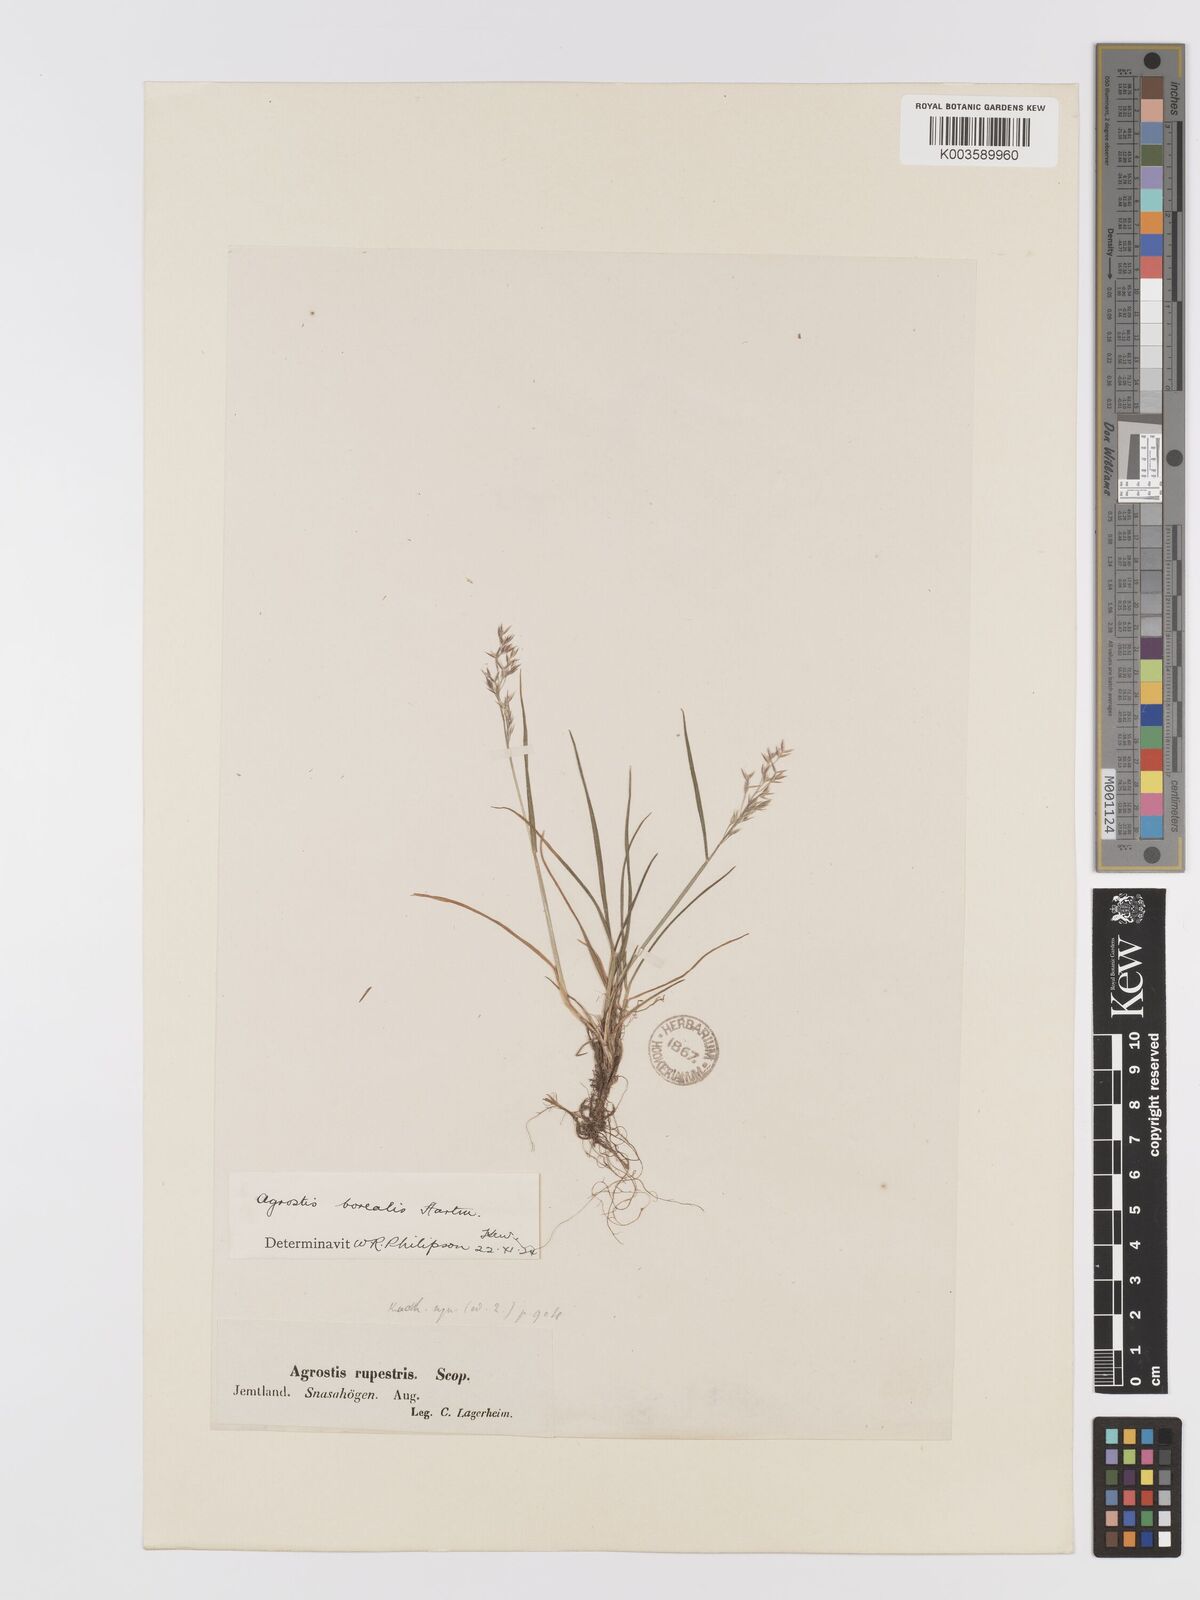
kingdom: Plantae
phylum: Tracheophyta
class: Liliopsida
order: Poales
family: Poaceae
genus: Agrostis
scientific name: Agrostis mertensii
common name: Northern bent
